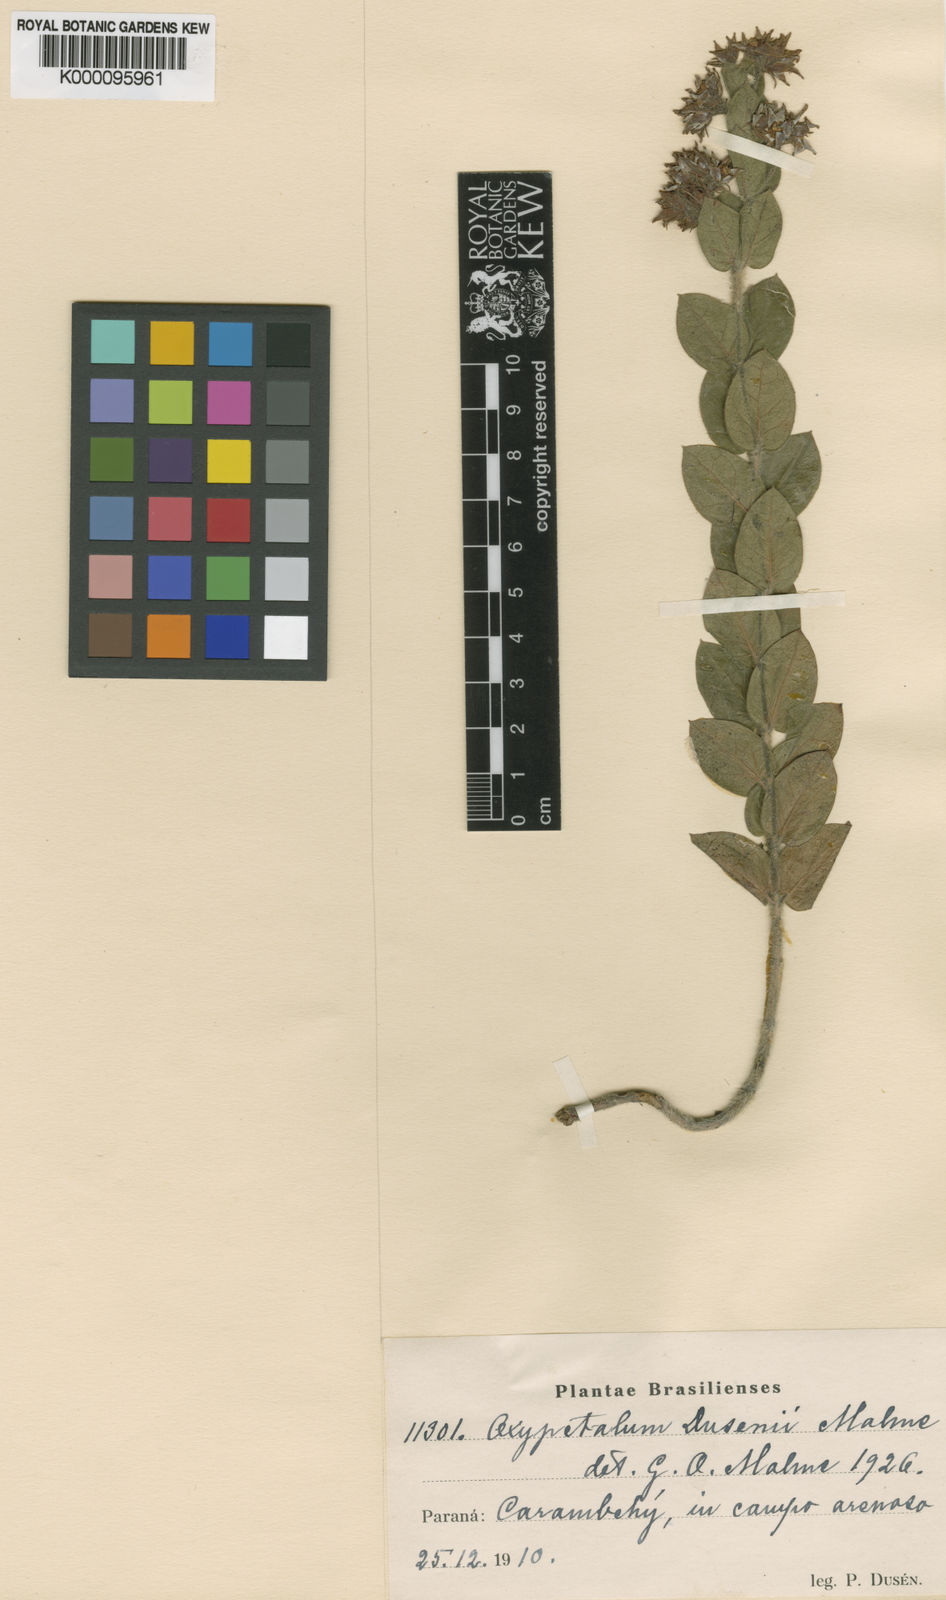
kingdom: Plantae
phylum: Tracheophyta
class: Magnoliopsida
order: Gentianales
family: Apocynaceae
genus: Oxypetalum
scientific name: Oxypetalum dusenii
